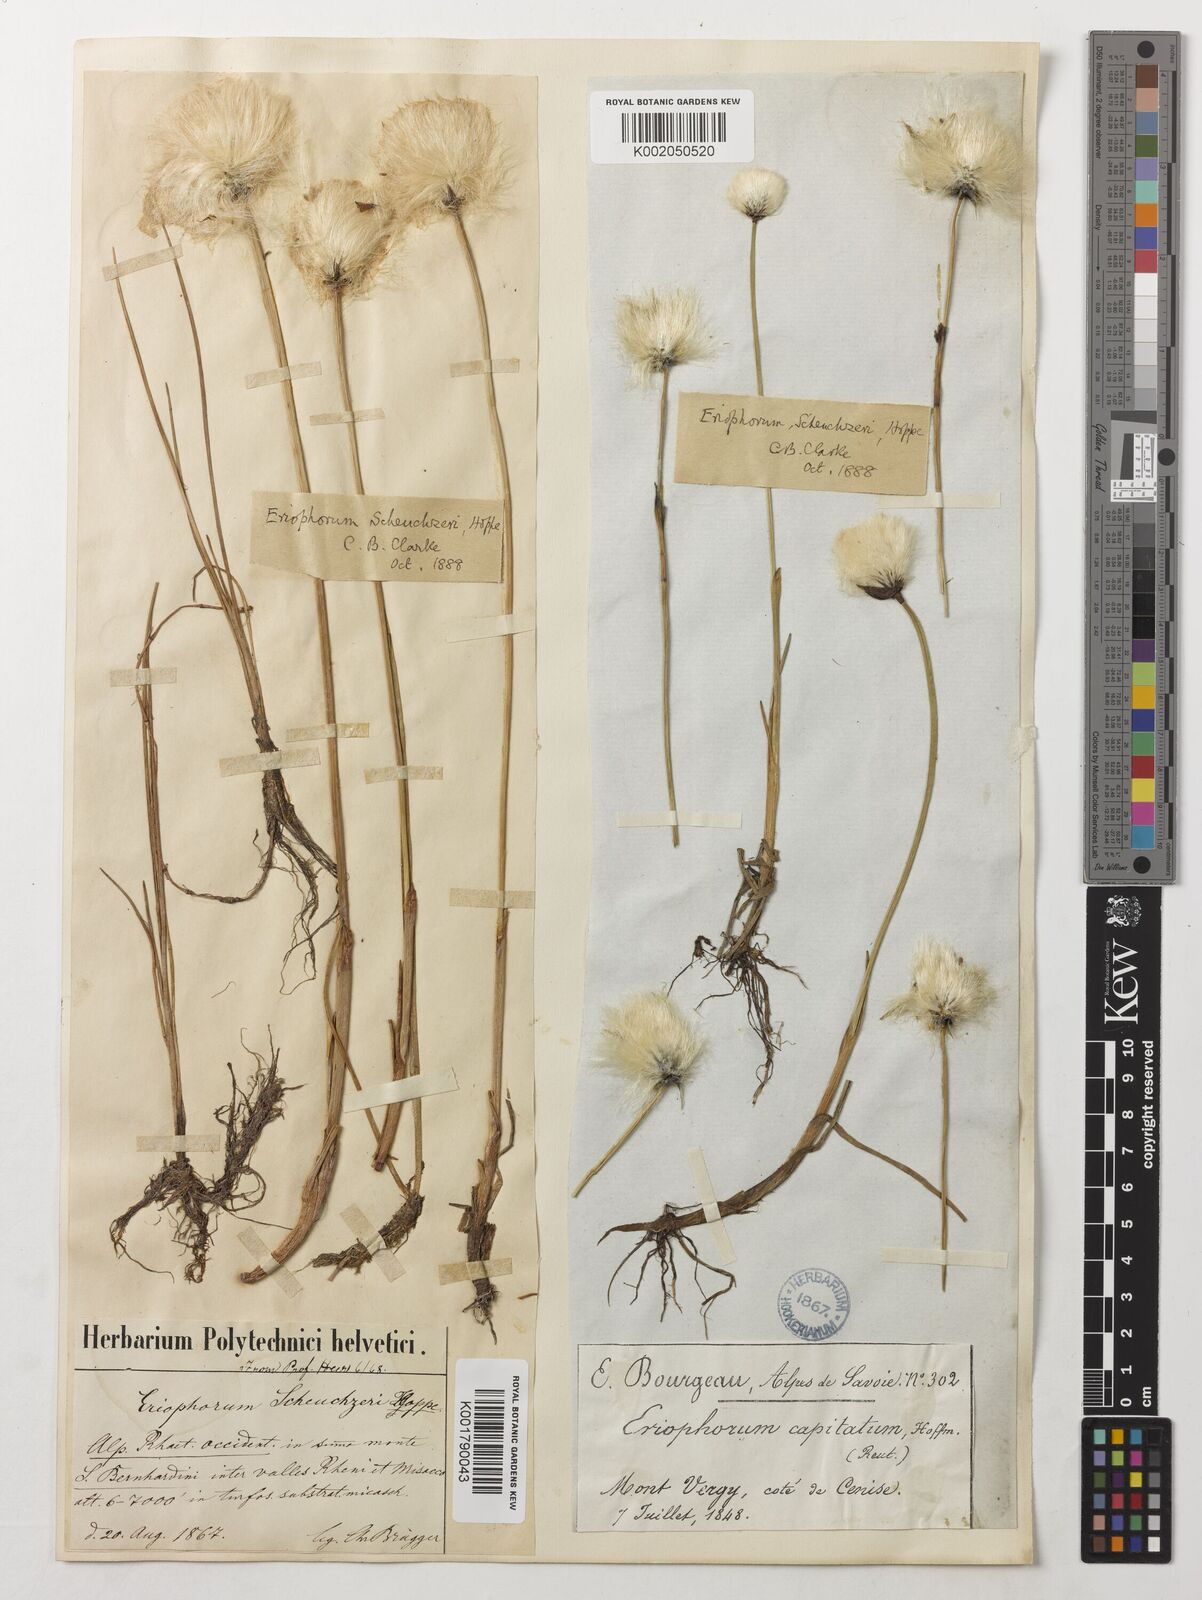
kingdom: Plantae
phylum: Tracheophyta
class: Liliopsida
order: Poales
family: Cyperaceae
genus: Eriophorum
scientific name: Eriophorum scheuchzeri
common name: Scheuchzer's cottongrass
